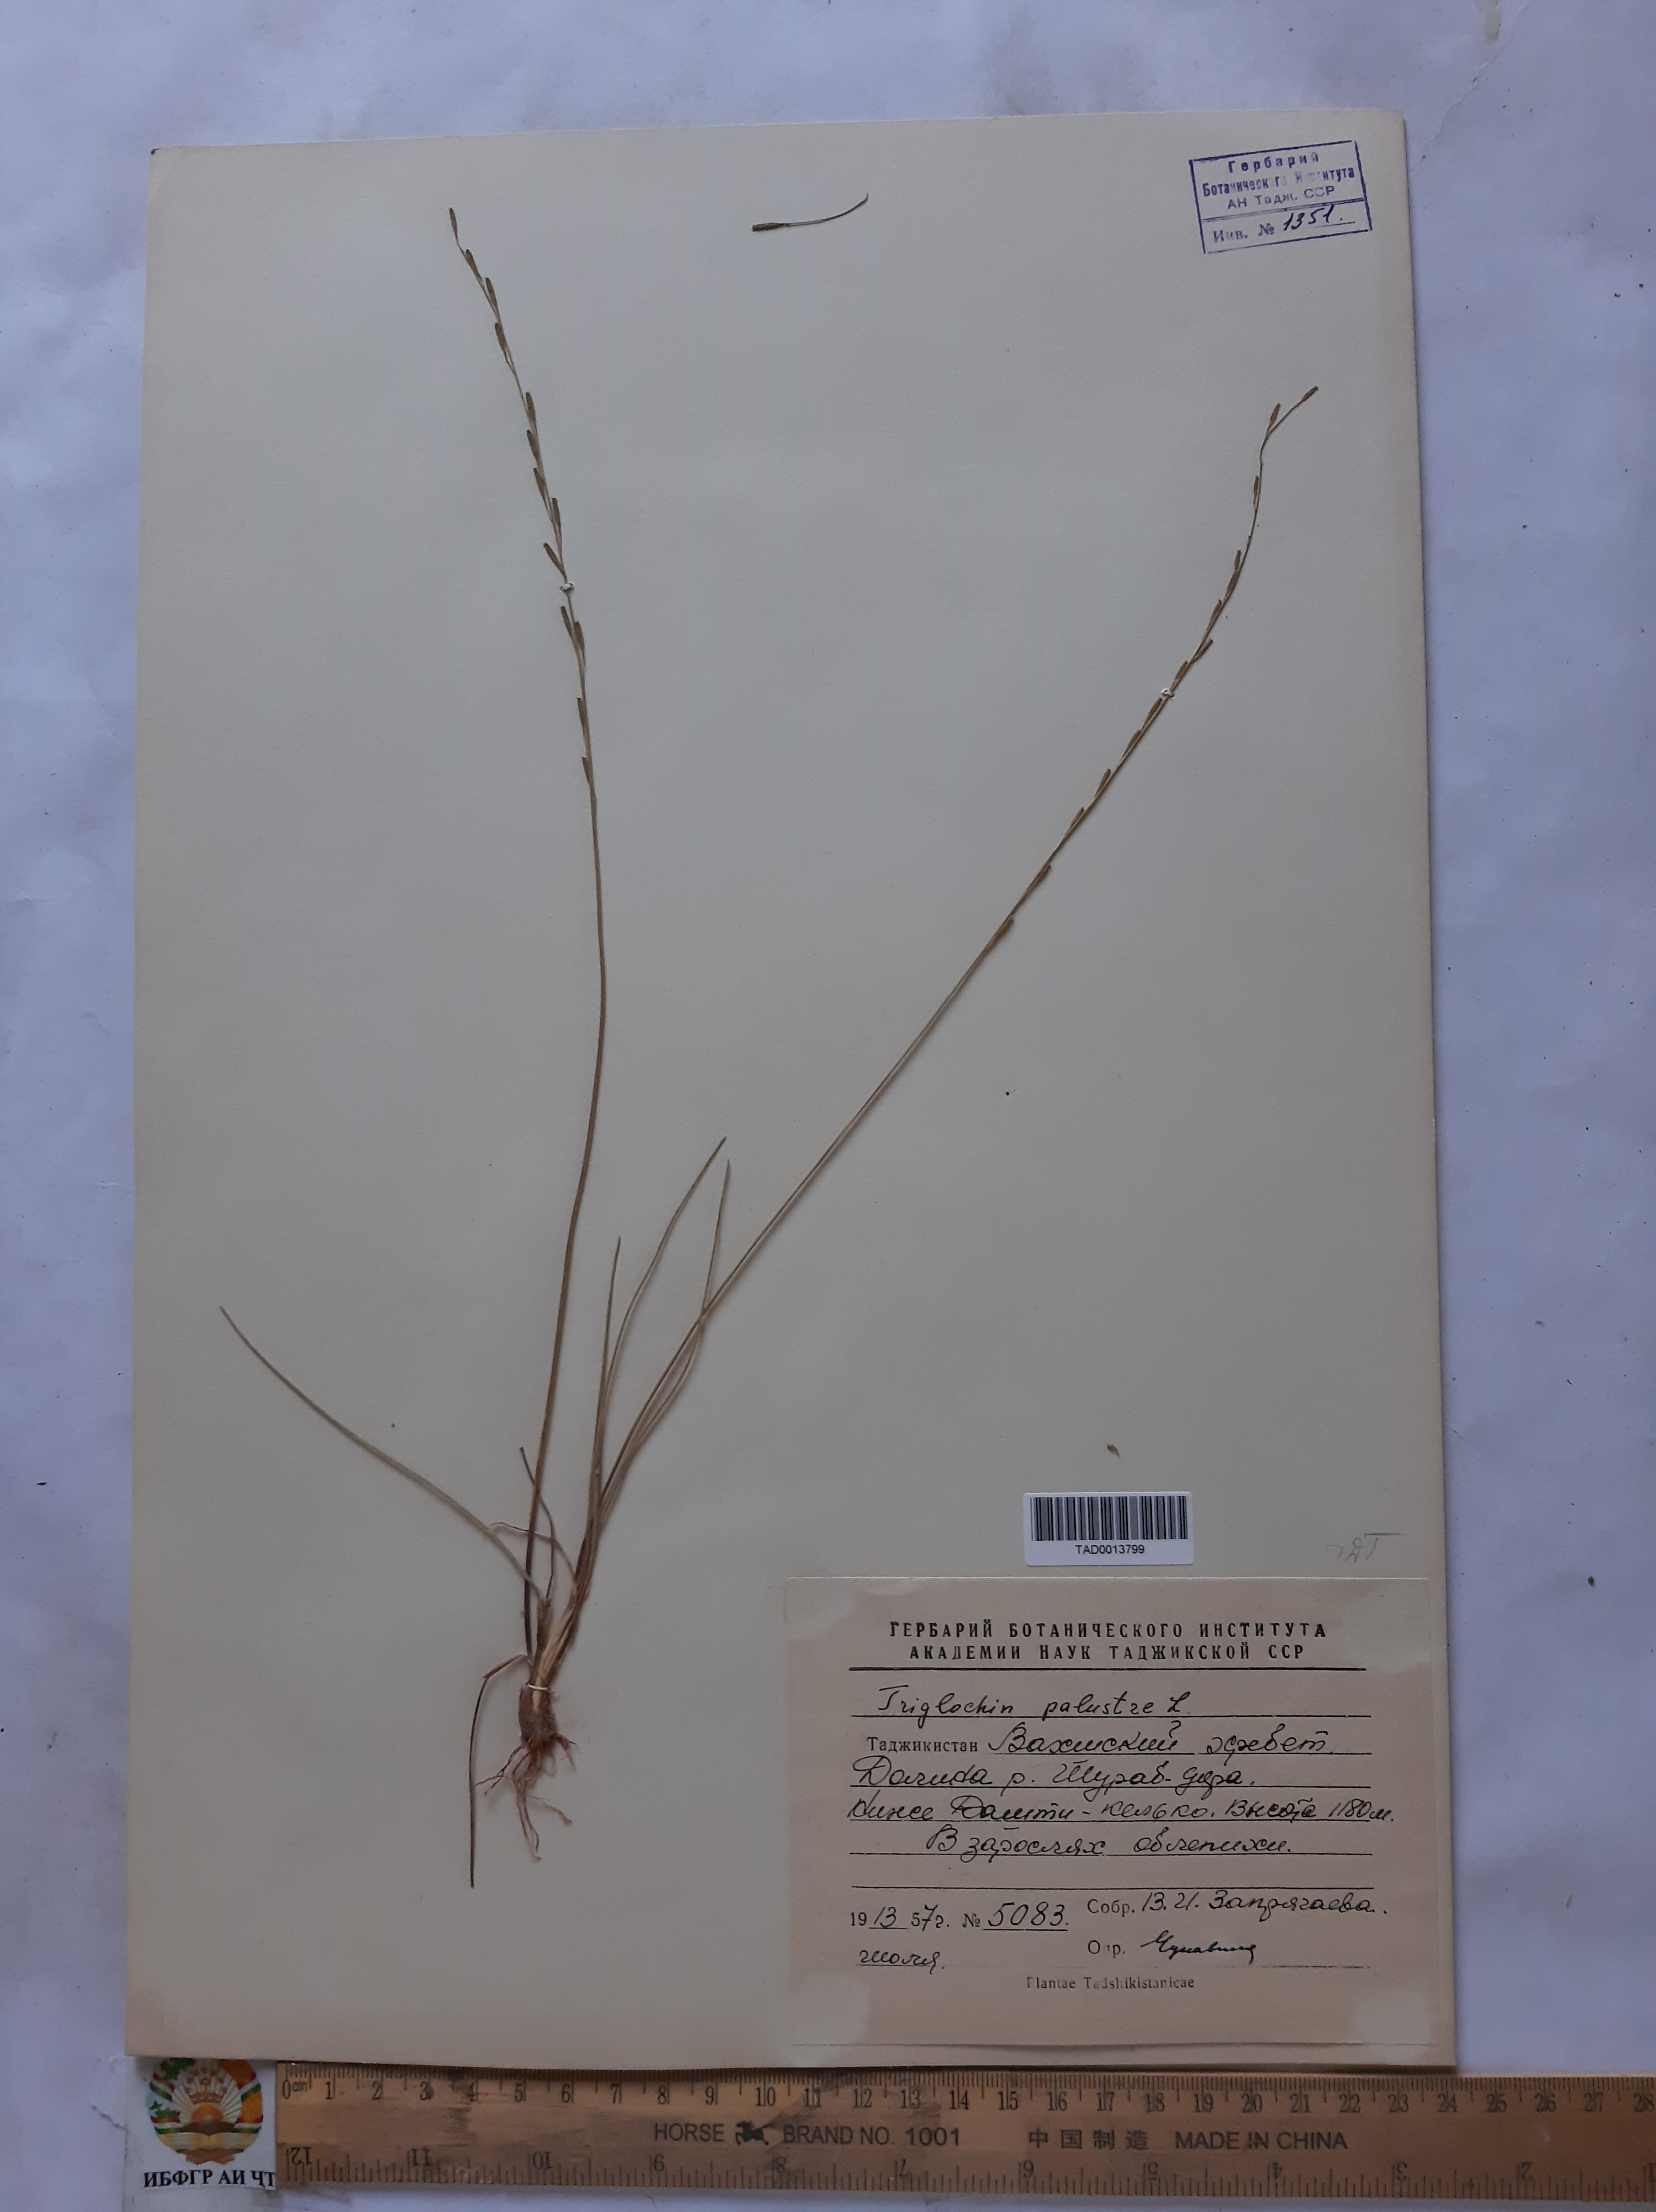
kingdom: Plantae
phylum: Tracheophyta
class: Liliopsida
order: Alismatales
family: Juncaginaceae
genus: Triglochin
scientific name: Triglochin palustris
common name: Marsh arrowgrass
